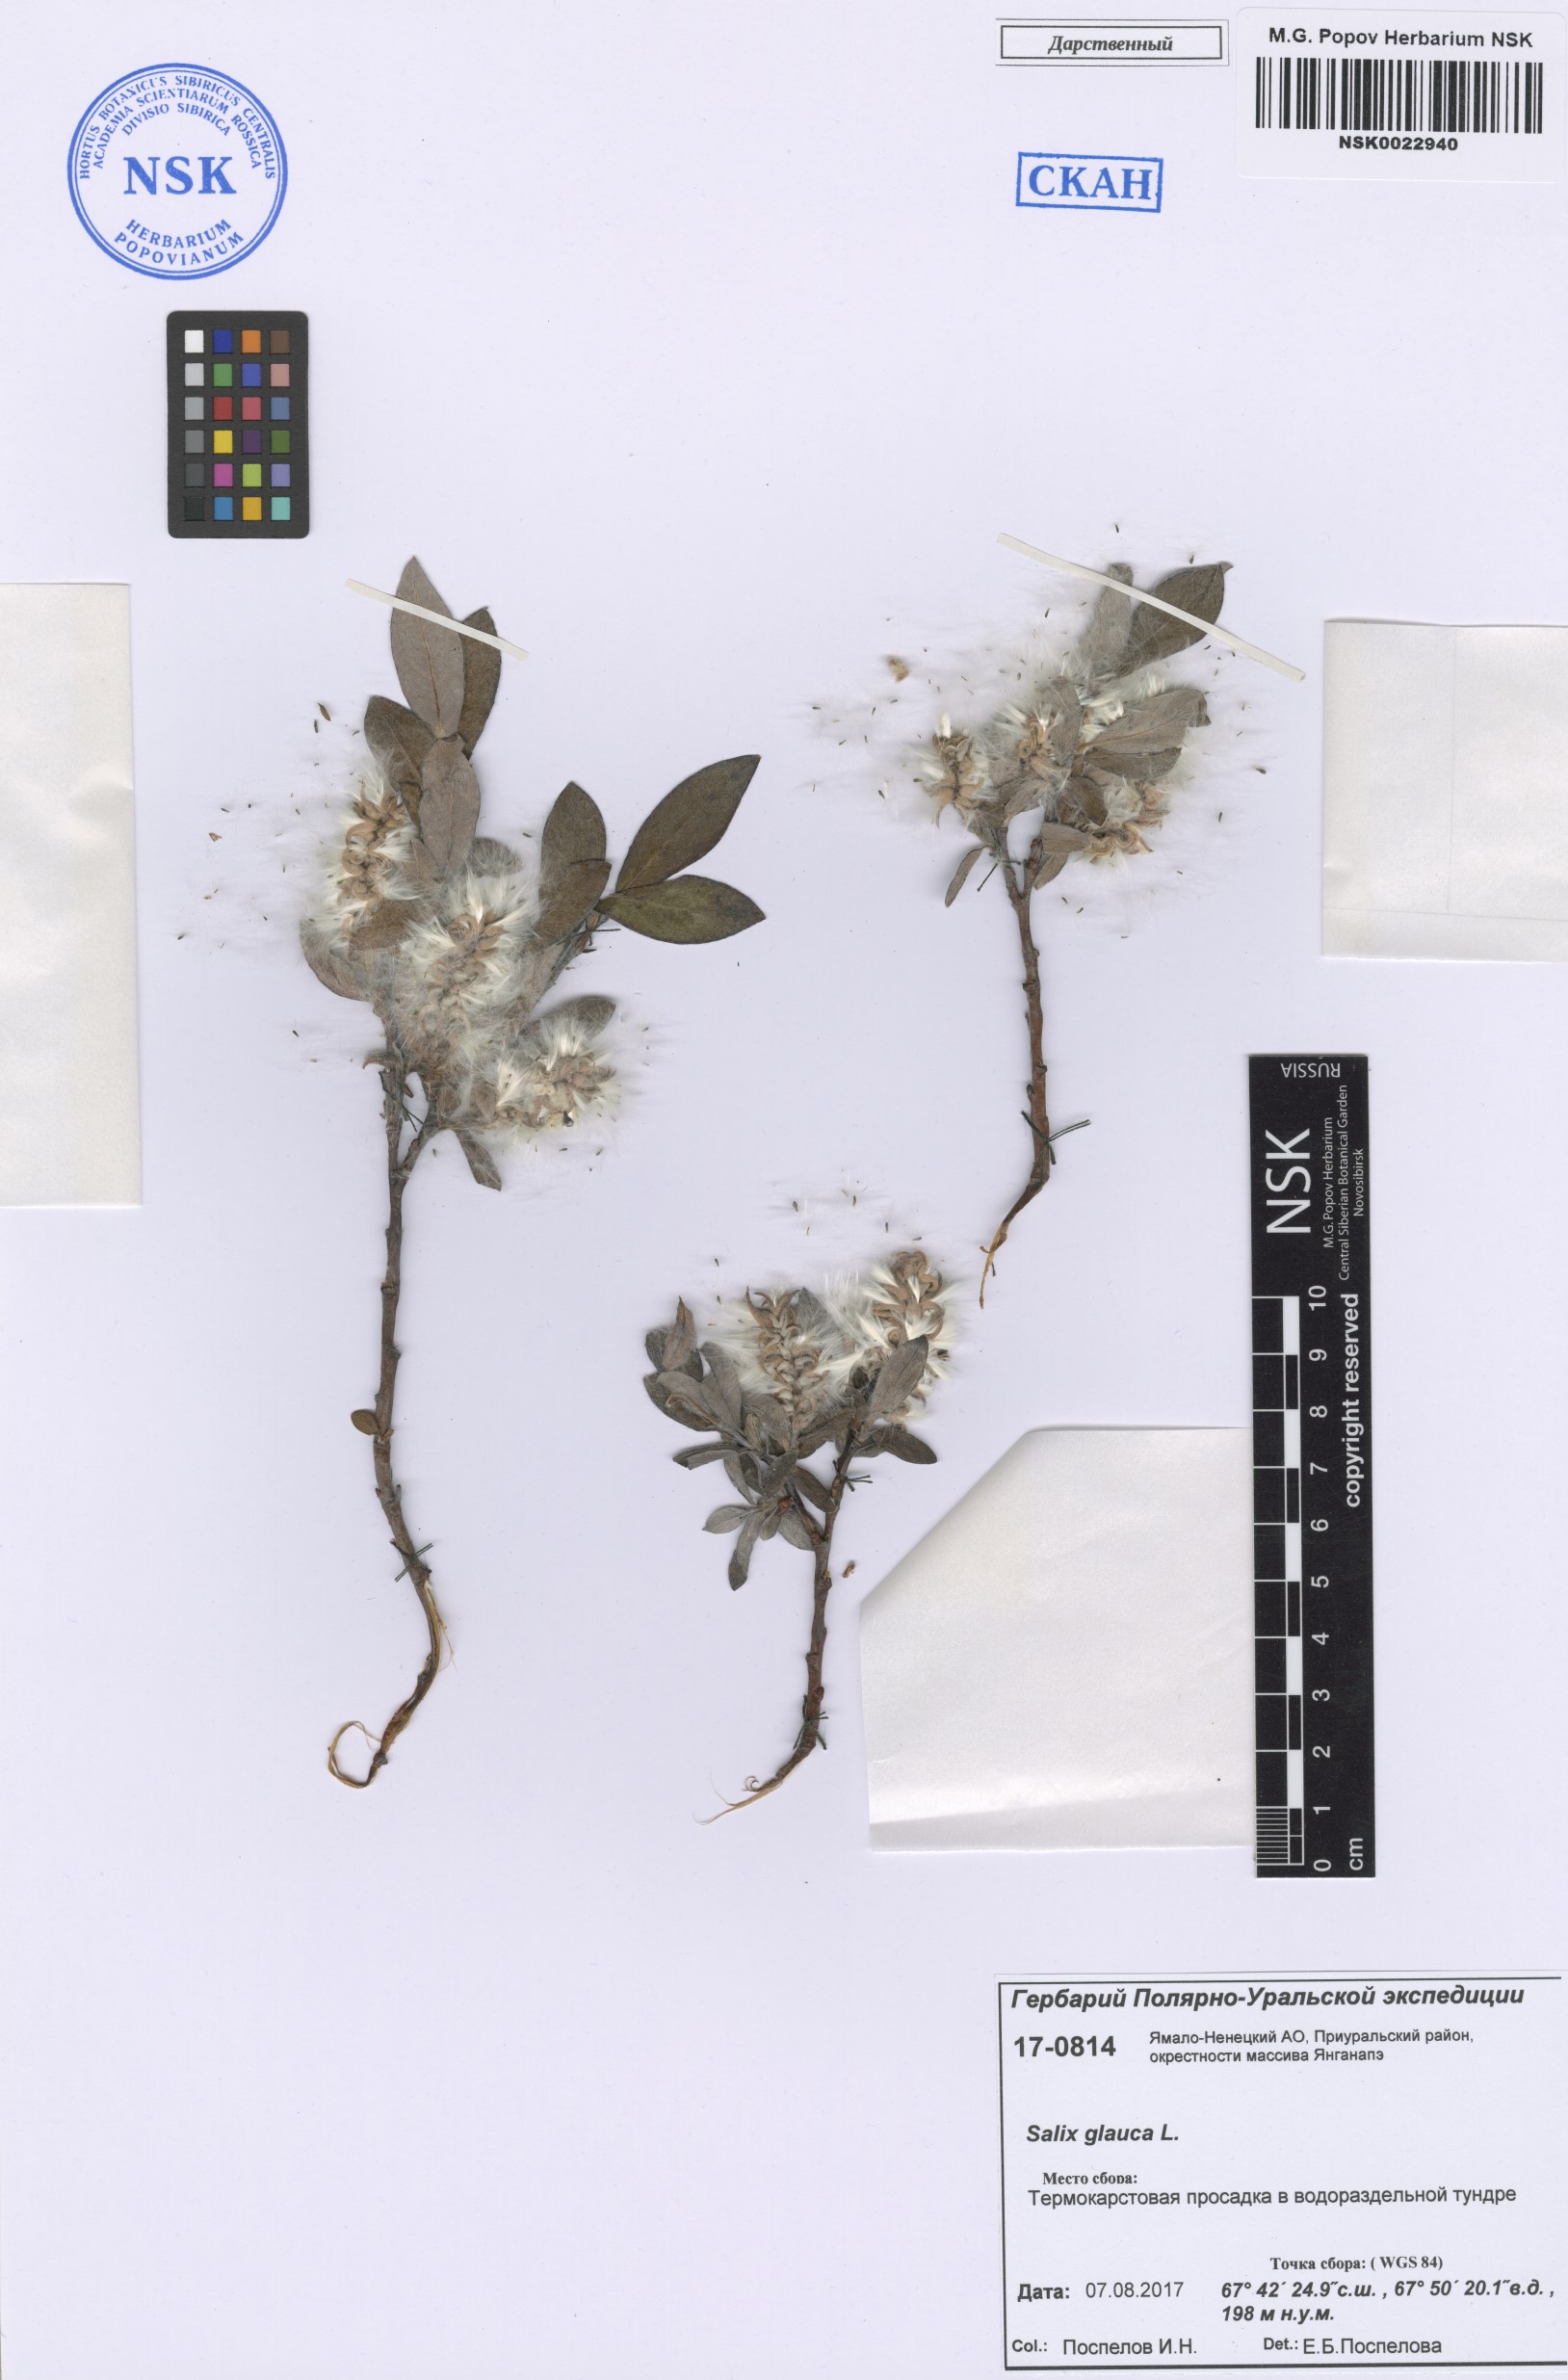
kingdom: Plantae
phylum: Tracheophyta
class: Magnoliopsida
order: Malpighiales
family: Salicaceae
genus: Salix
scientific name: Salix glauca
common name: Glaucous willow
